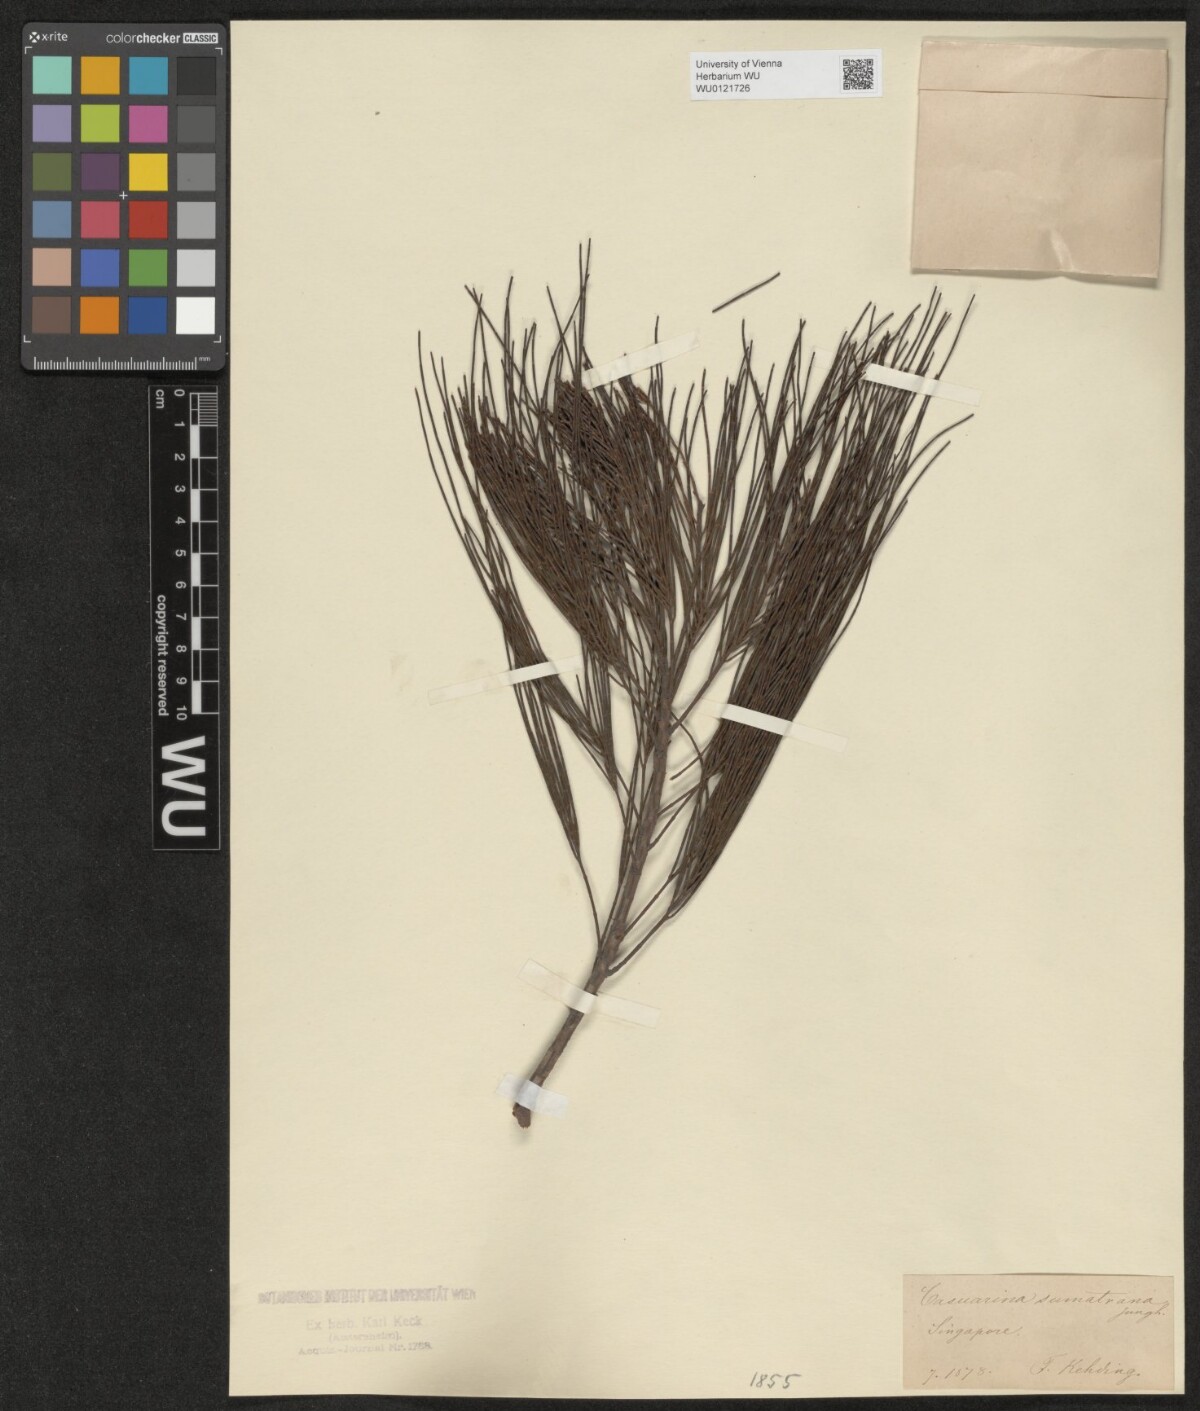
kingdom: Plantae
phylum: Tracheophyta
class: Magnoliopsida
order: Fagales
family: Casuarinaceae
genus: Gymnostoma
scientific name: Gymnostoma sumatranum
